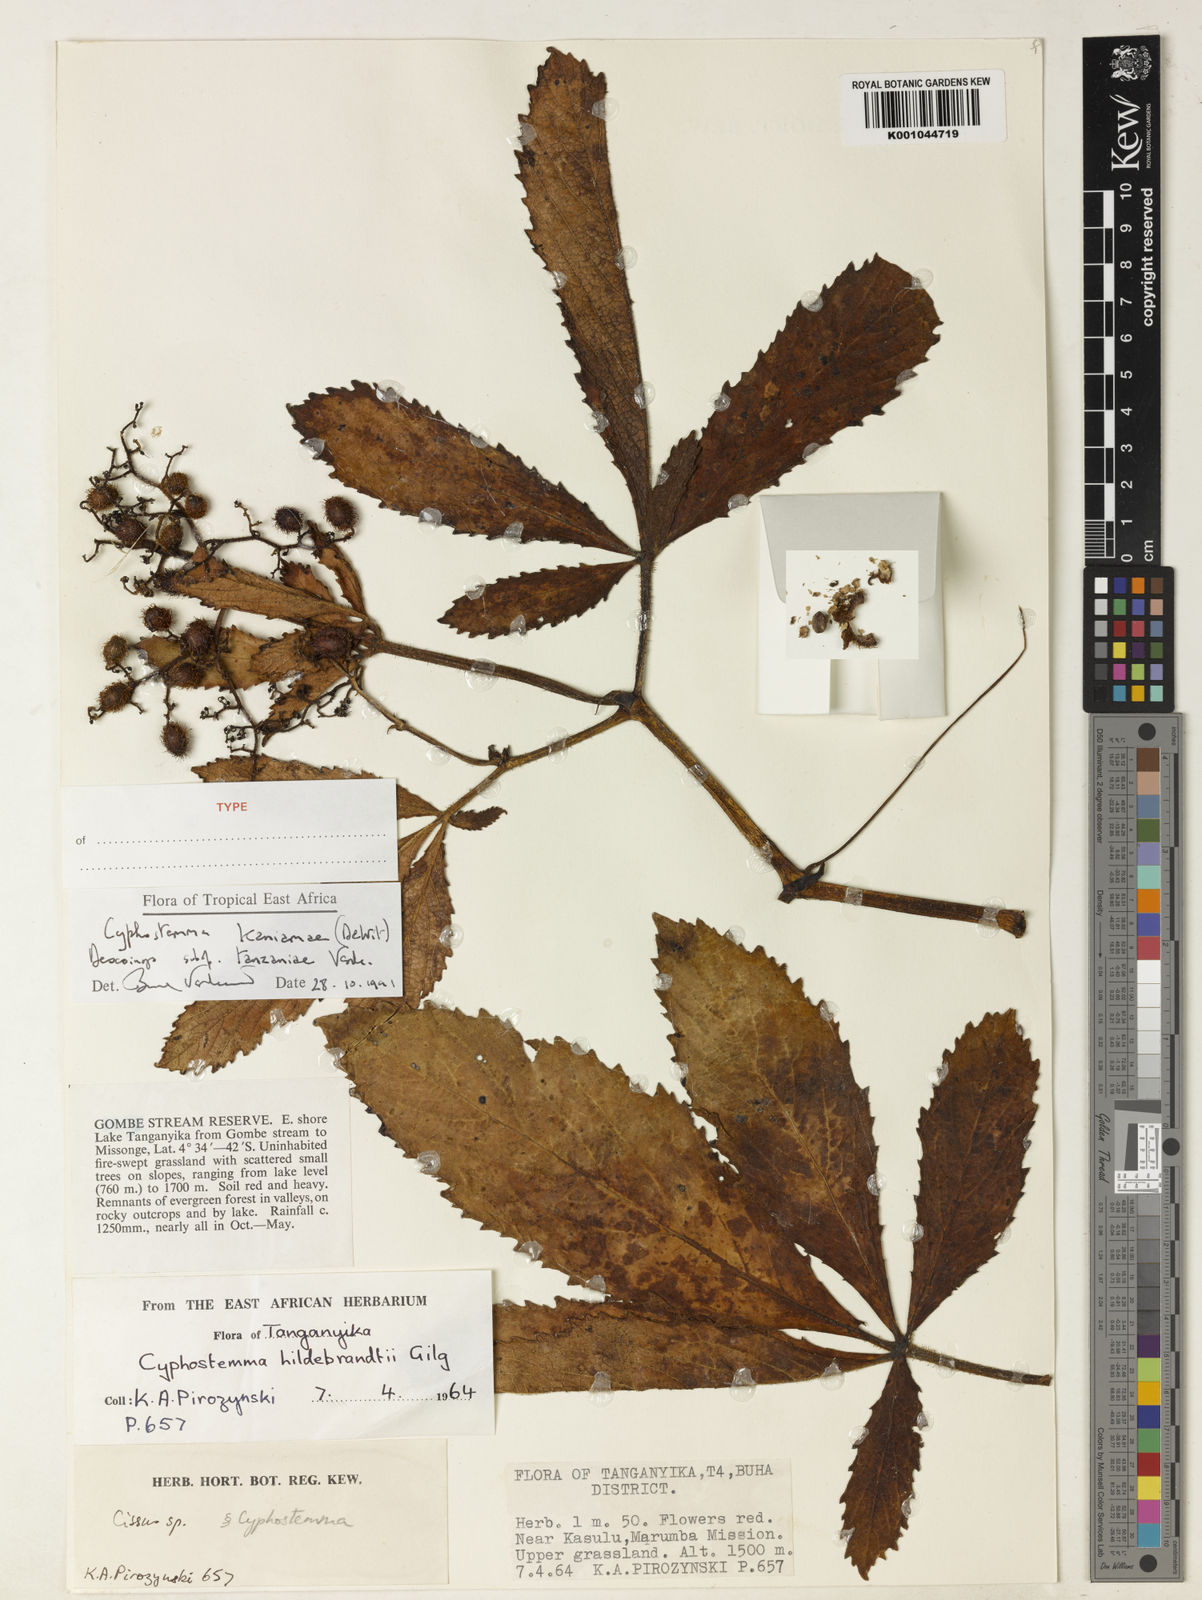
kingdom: Plantae
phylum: Tracheophyta
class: Magnoliopsida
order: Vitales
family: Vitaceae
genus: Cyphostemma
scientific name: Cyphostemma kaniamae
